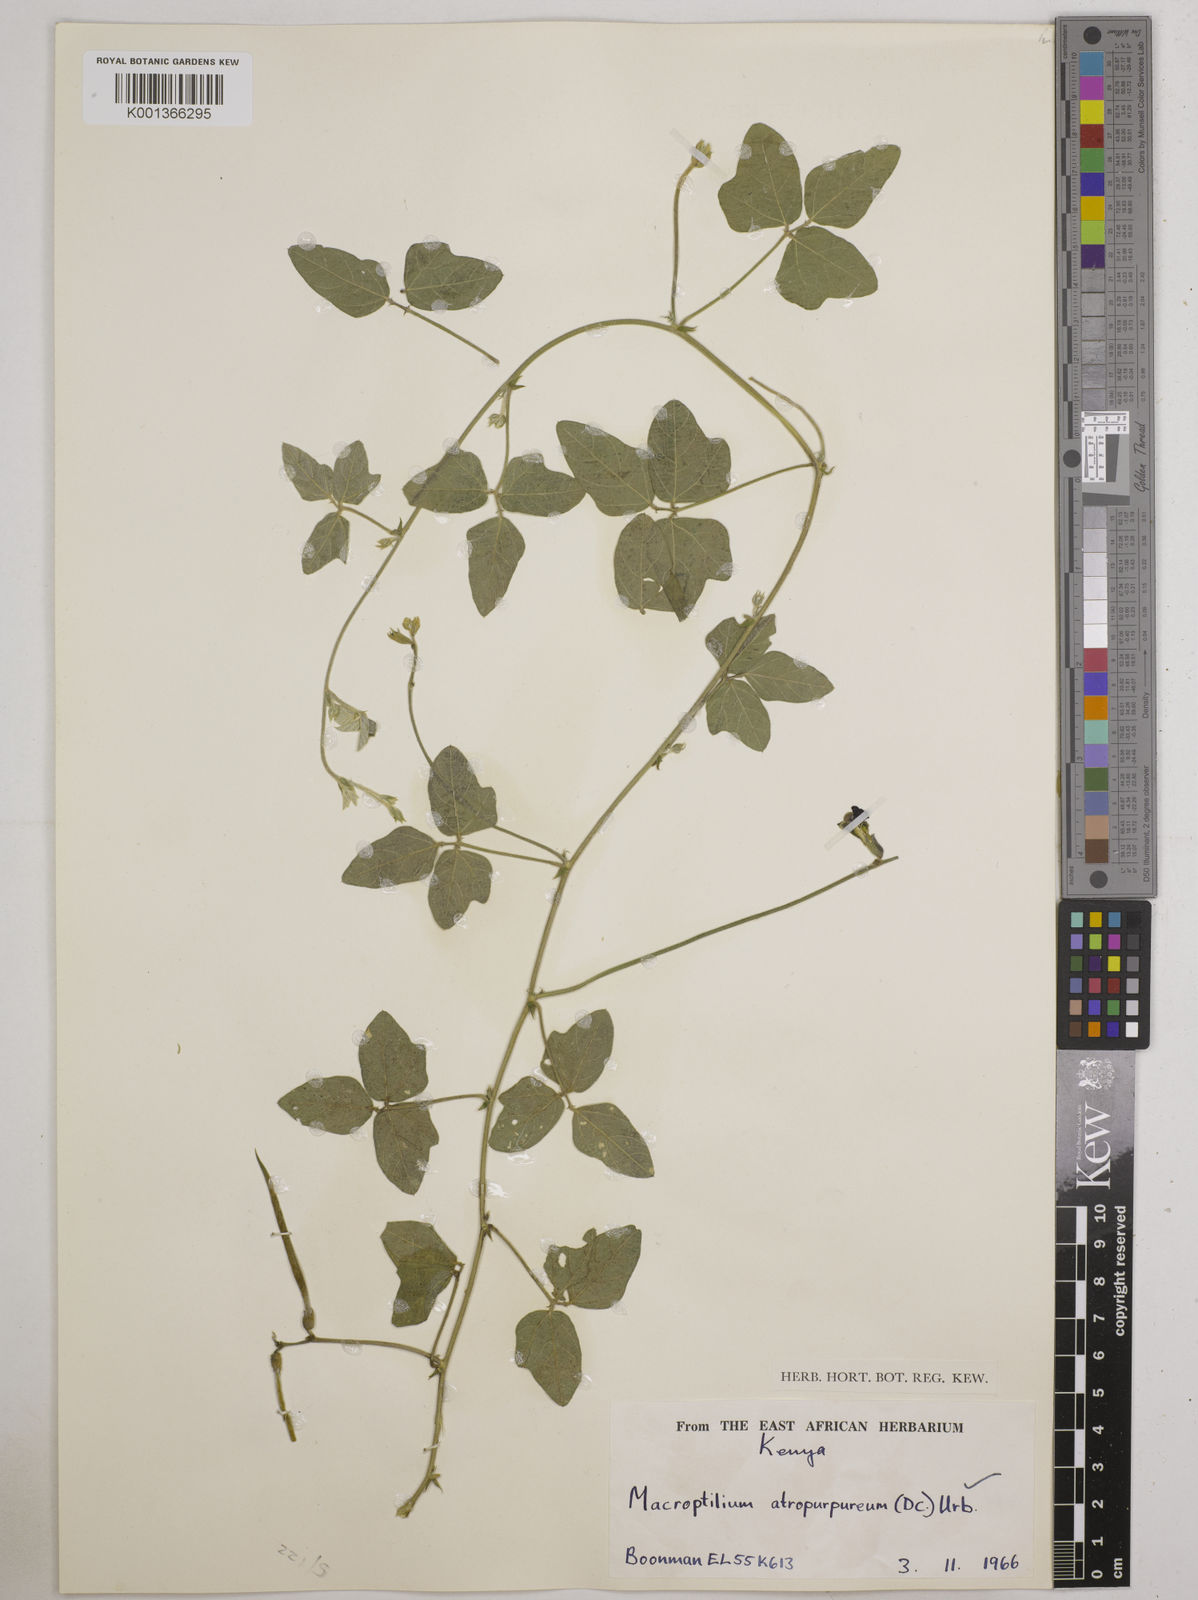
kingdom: Plantae
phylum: Tracheophyta
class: Magnoliopsida
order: Fabales
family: Fabaceae
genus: Macroptilium
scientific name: Macroptilium atropurpureum
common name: Purple bushbean
